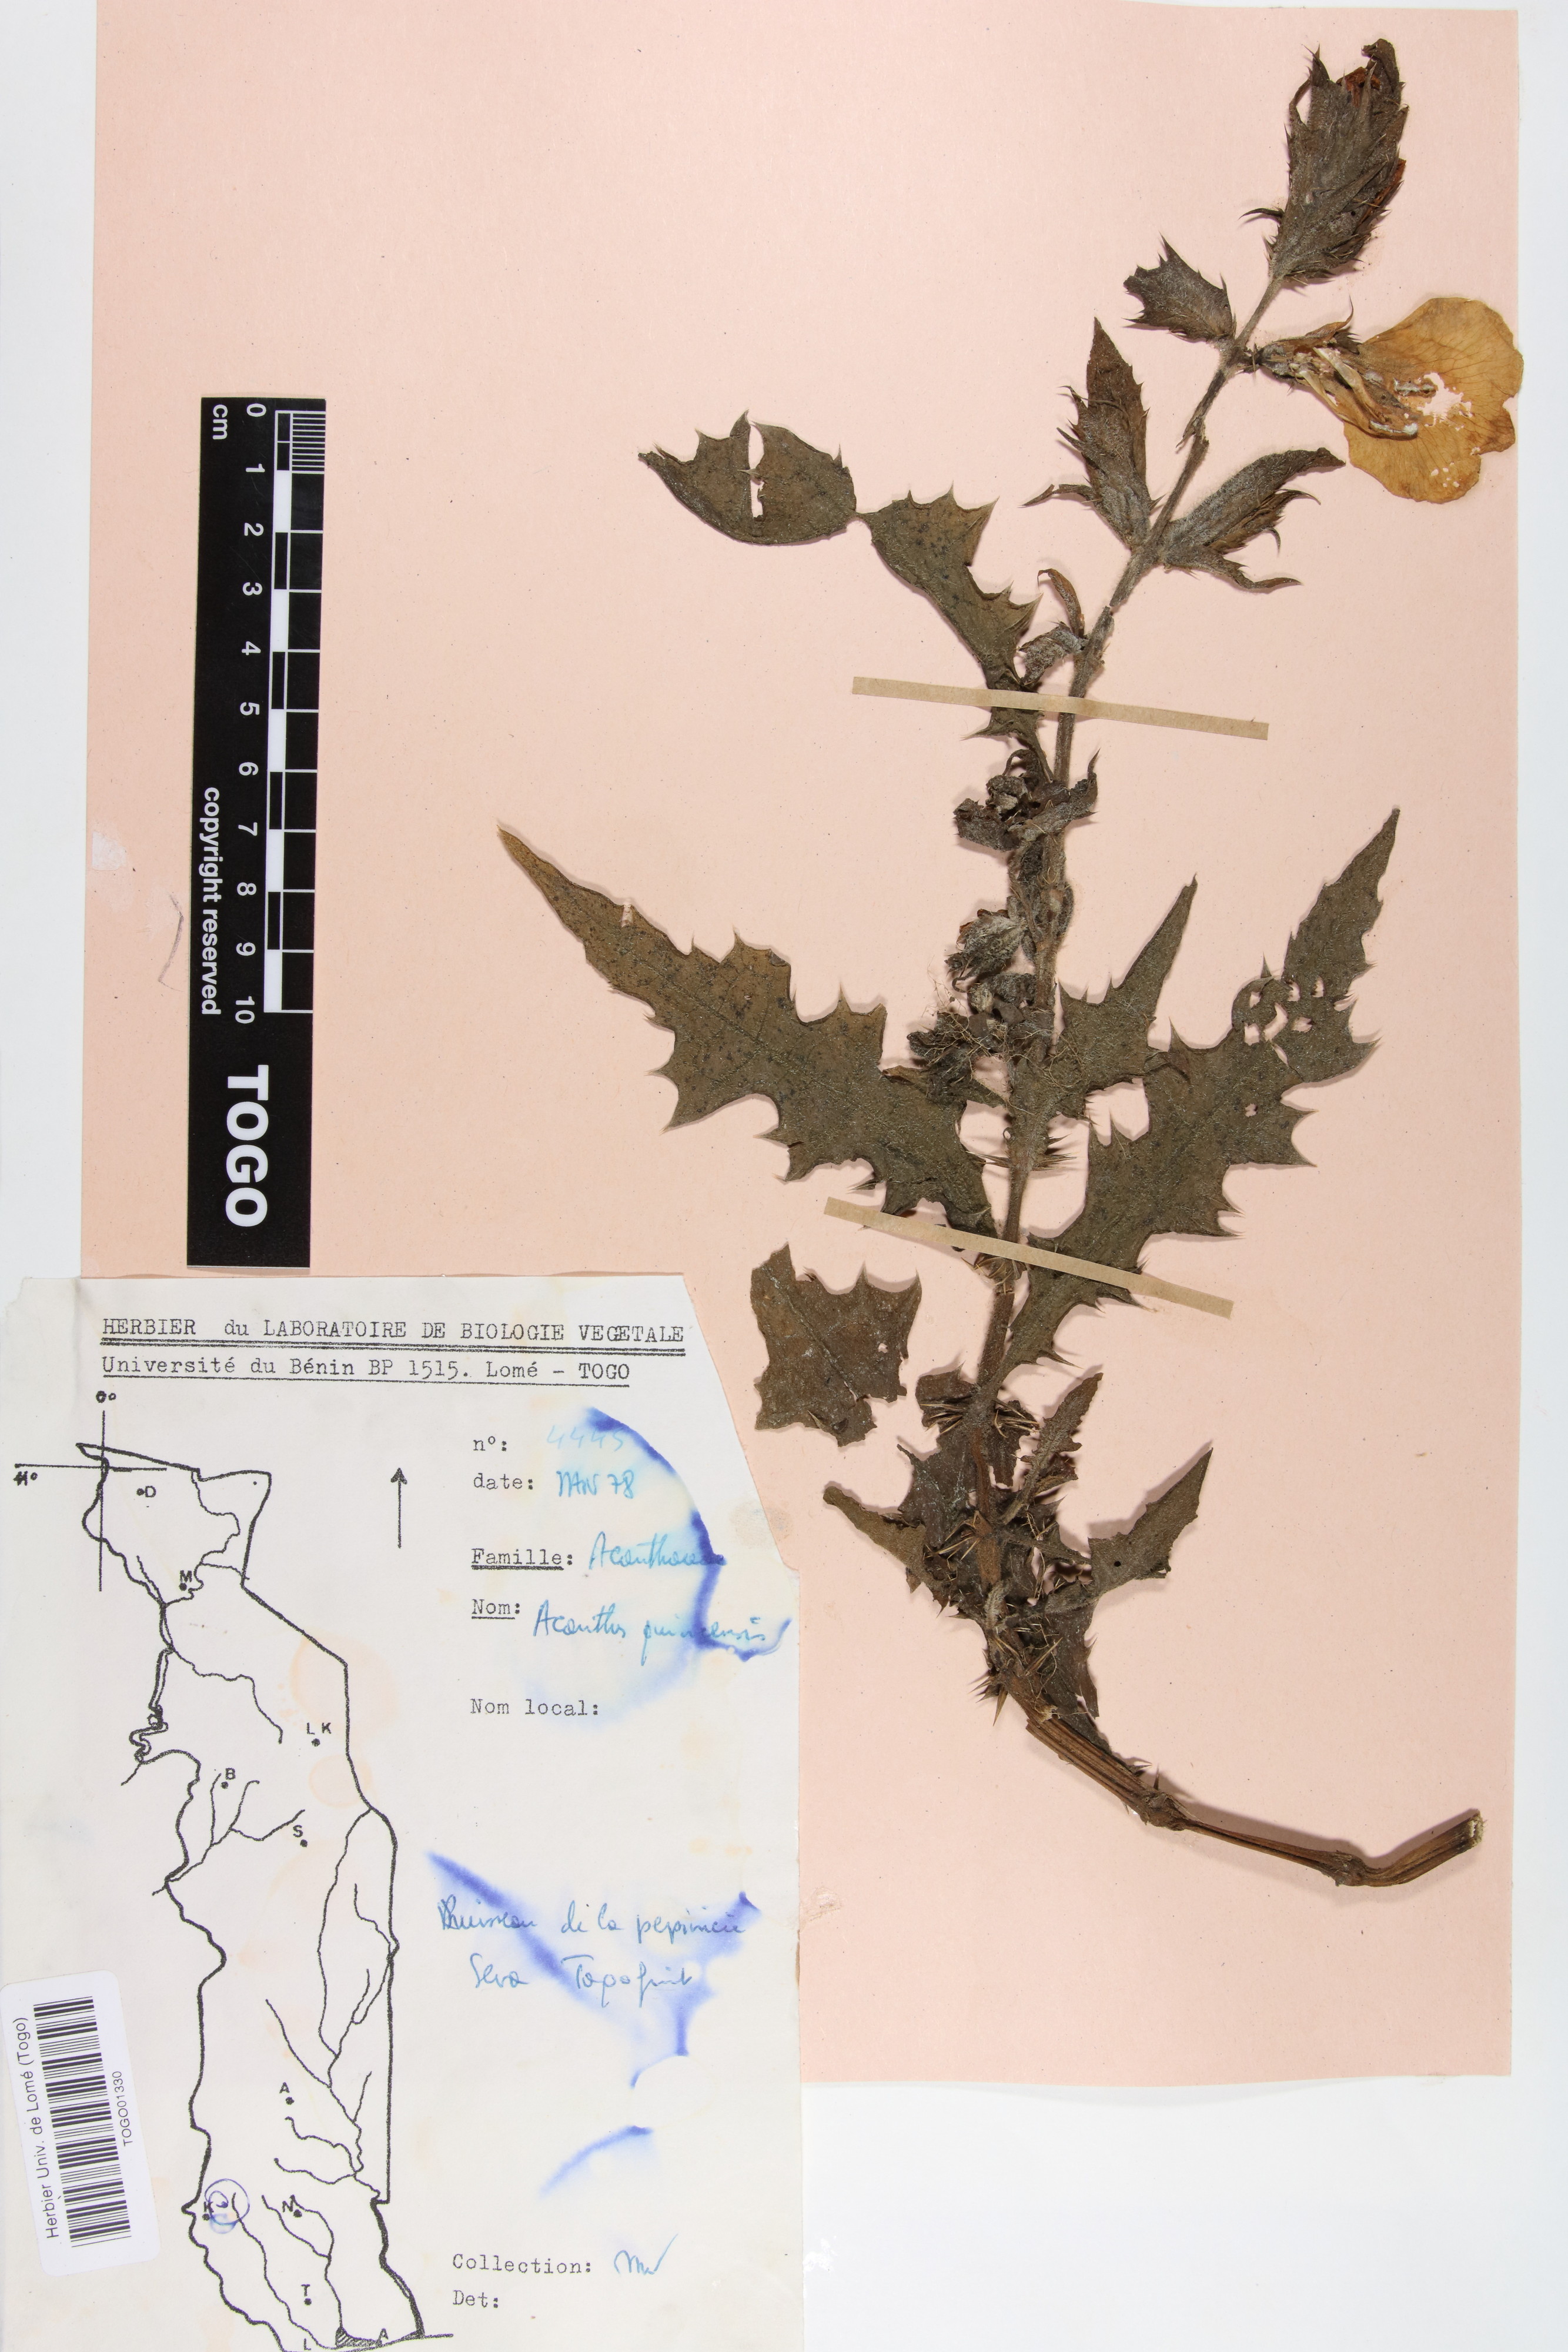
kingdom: Plantae
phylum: Tracheophyta
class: Magnoliopsida
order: Lamiales
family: Acanthaceae
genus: Acanthus
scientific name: Acanthus guineensis
